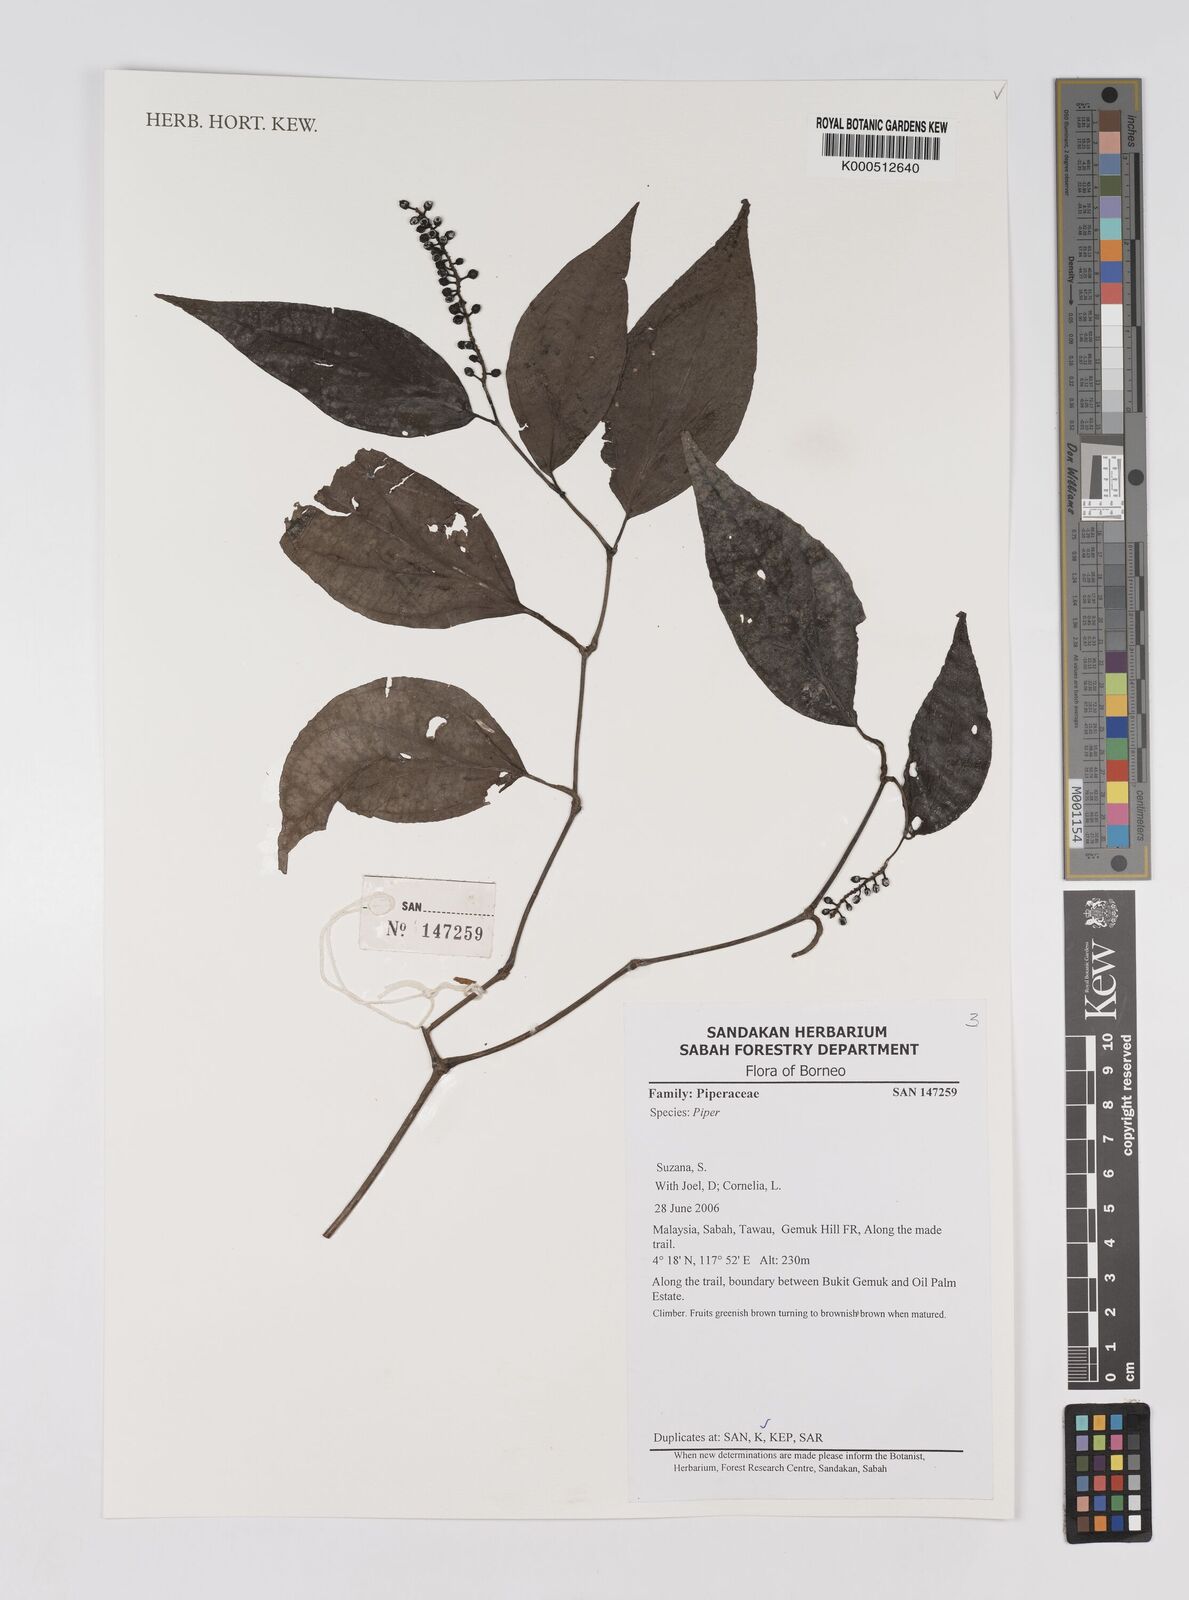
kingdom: Plantae
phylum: Tracheophyta
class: Magnoliopsida
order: Piperales
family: Piperaceae
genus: Piper
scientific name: Piper
